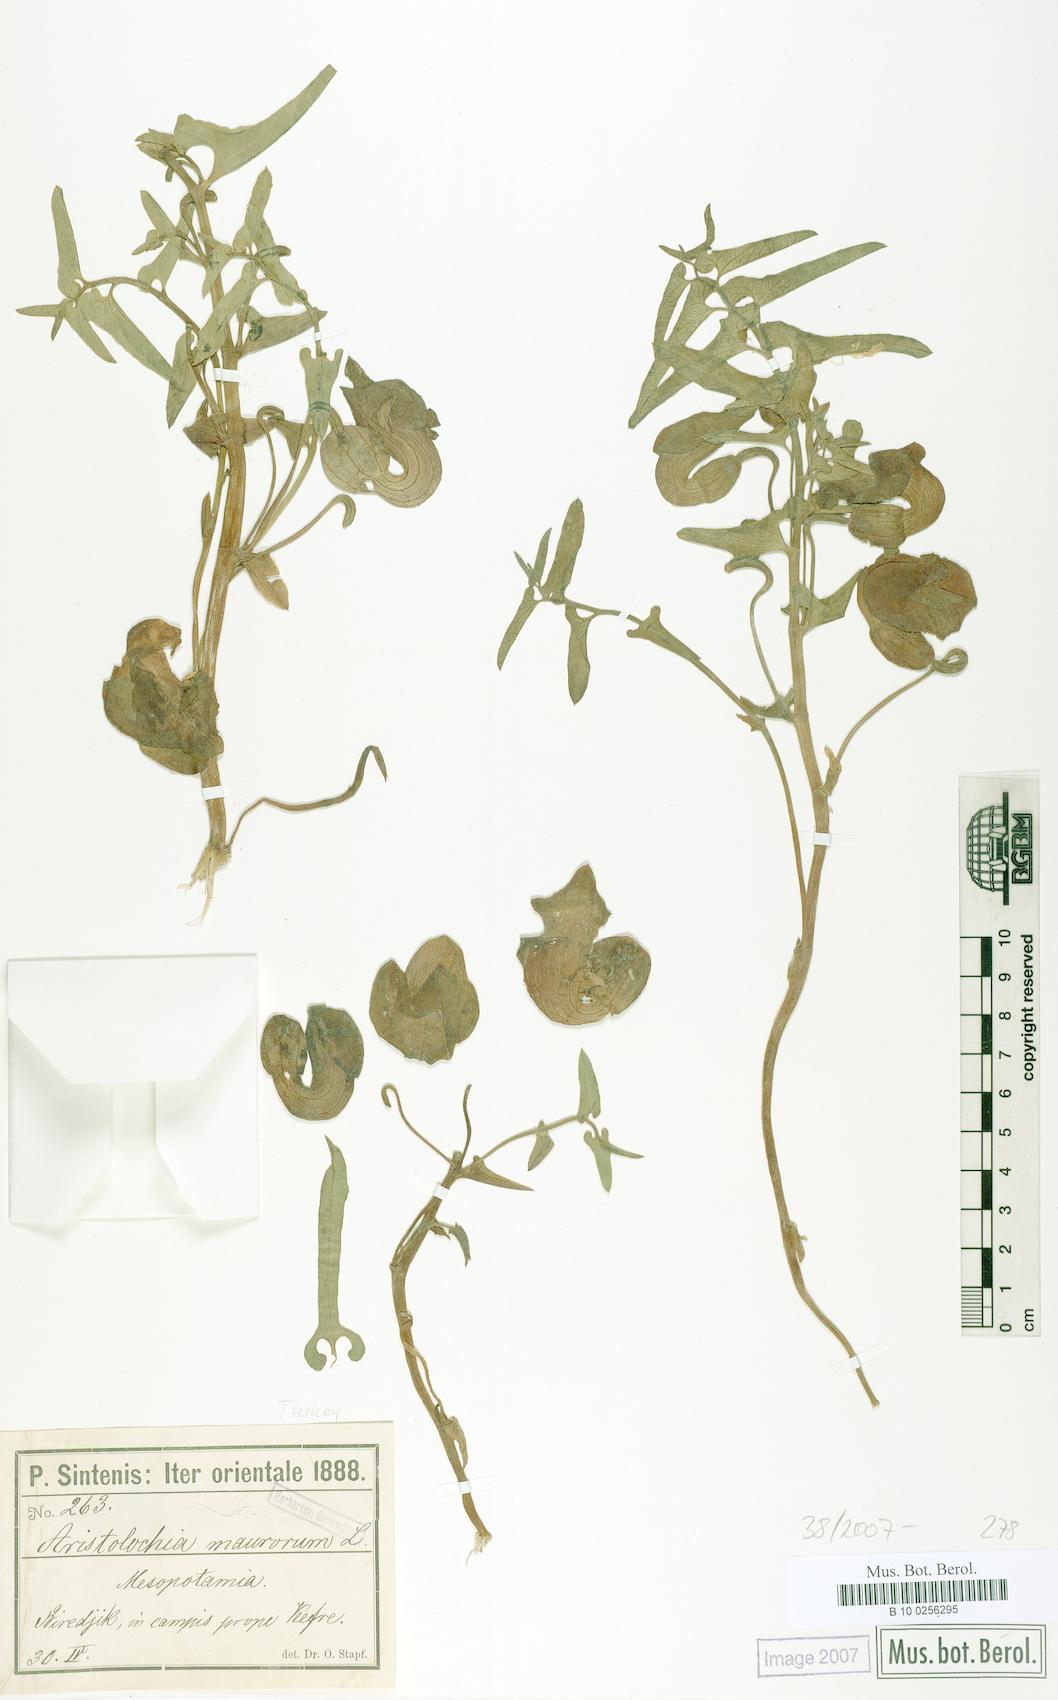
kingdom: Plantae
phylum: Tracheophyta
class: Magnoliopsida
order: Piperales
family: Aristolochiaceae
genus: Aristolochia
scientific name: Aristolochia bottae
